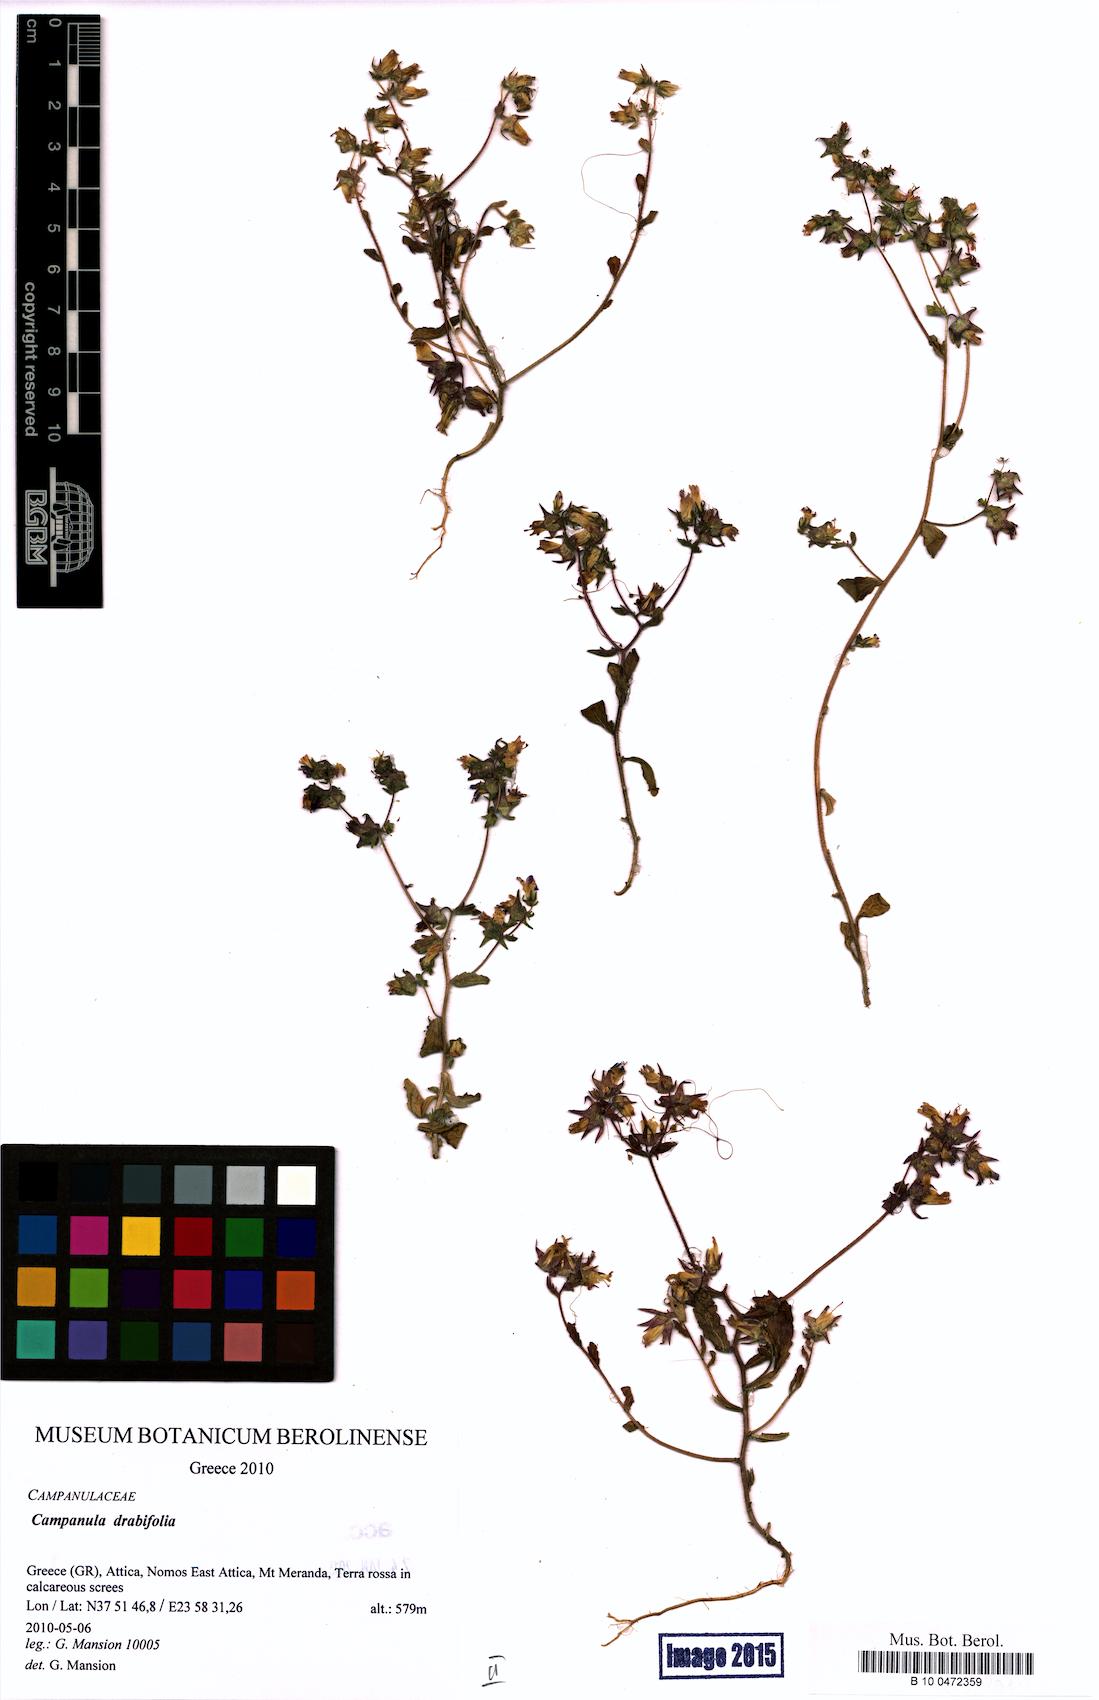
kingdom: Plantae
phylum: Tracheophyta
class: Magnoliopsida
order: Asterales
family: Campanulaceae
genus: Campanula
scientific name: Campanula drabifolia
